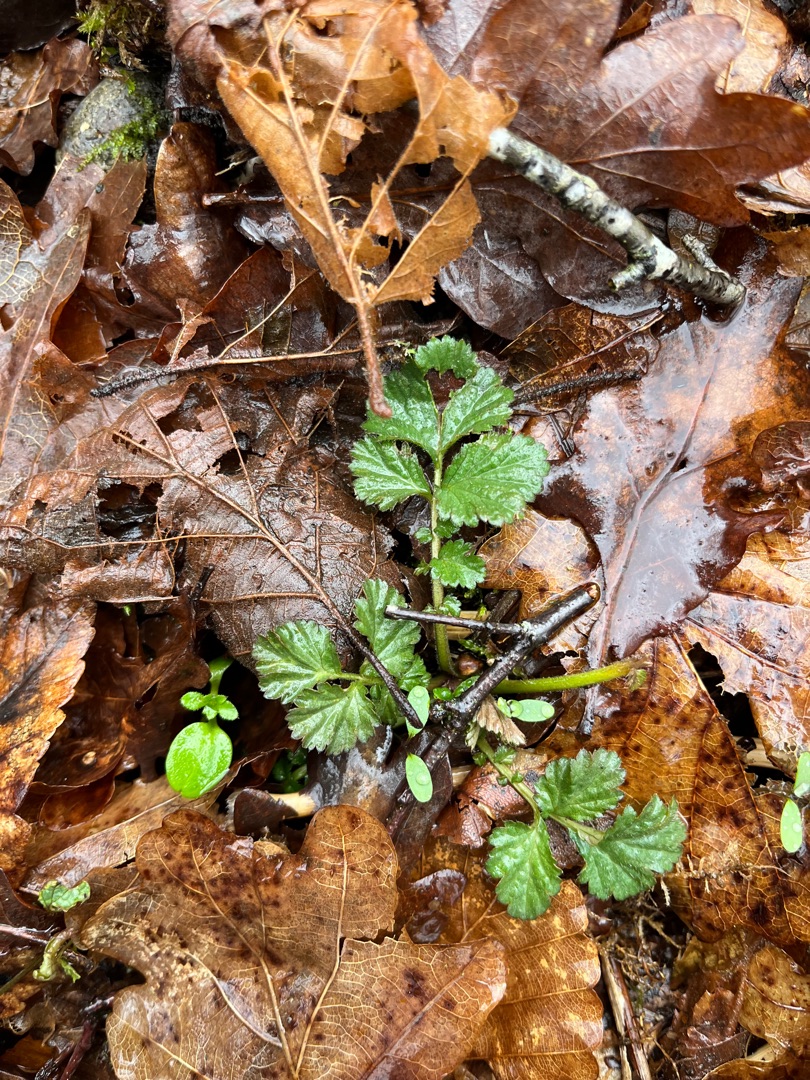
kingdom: Plantae
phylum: Tracheophyta
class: Magnoliopsida
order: Rosales
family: Rosaceae
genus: Geum
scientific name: Geum urbanum
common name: Feber-nellikerod
